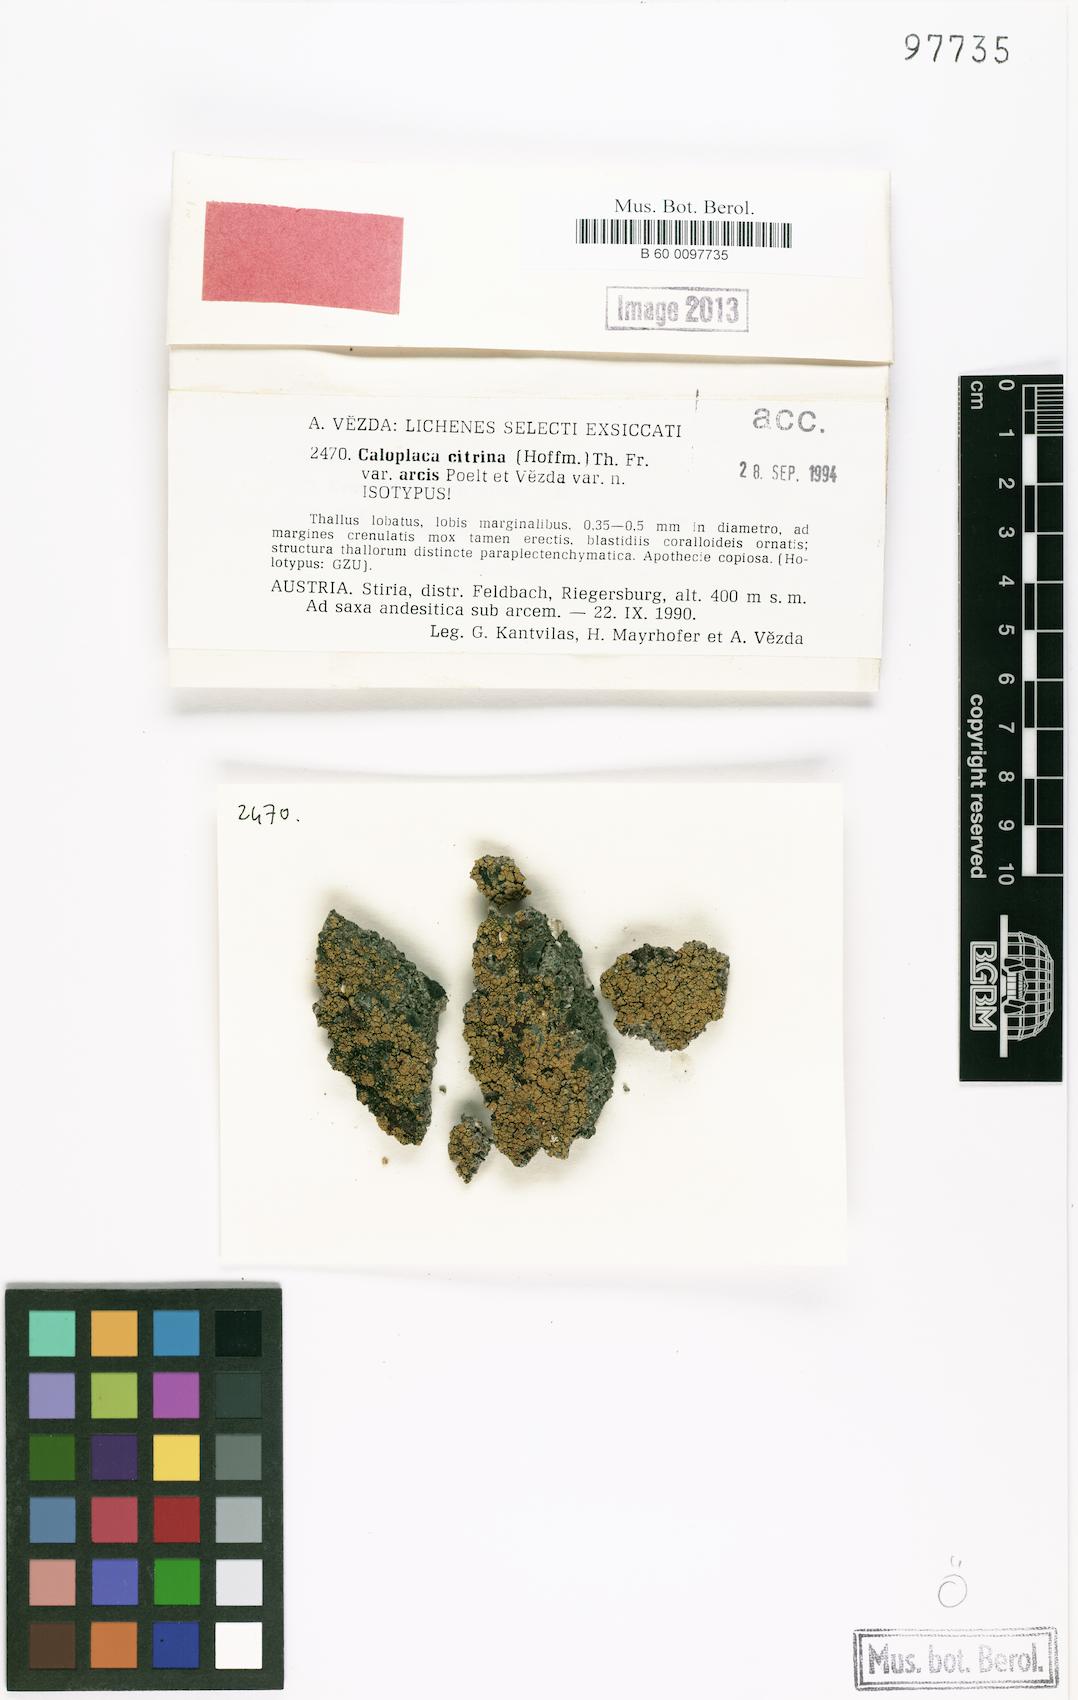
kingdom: Fungi
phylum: Ascomycota
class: Lecanoromycetes
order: Teloschistales
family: Teloschistaceae
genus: Flavoplaca
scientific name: Flavoplaca arcis
